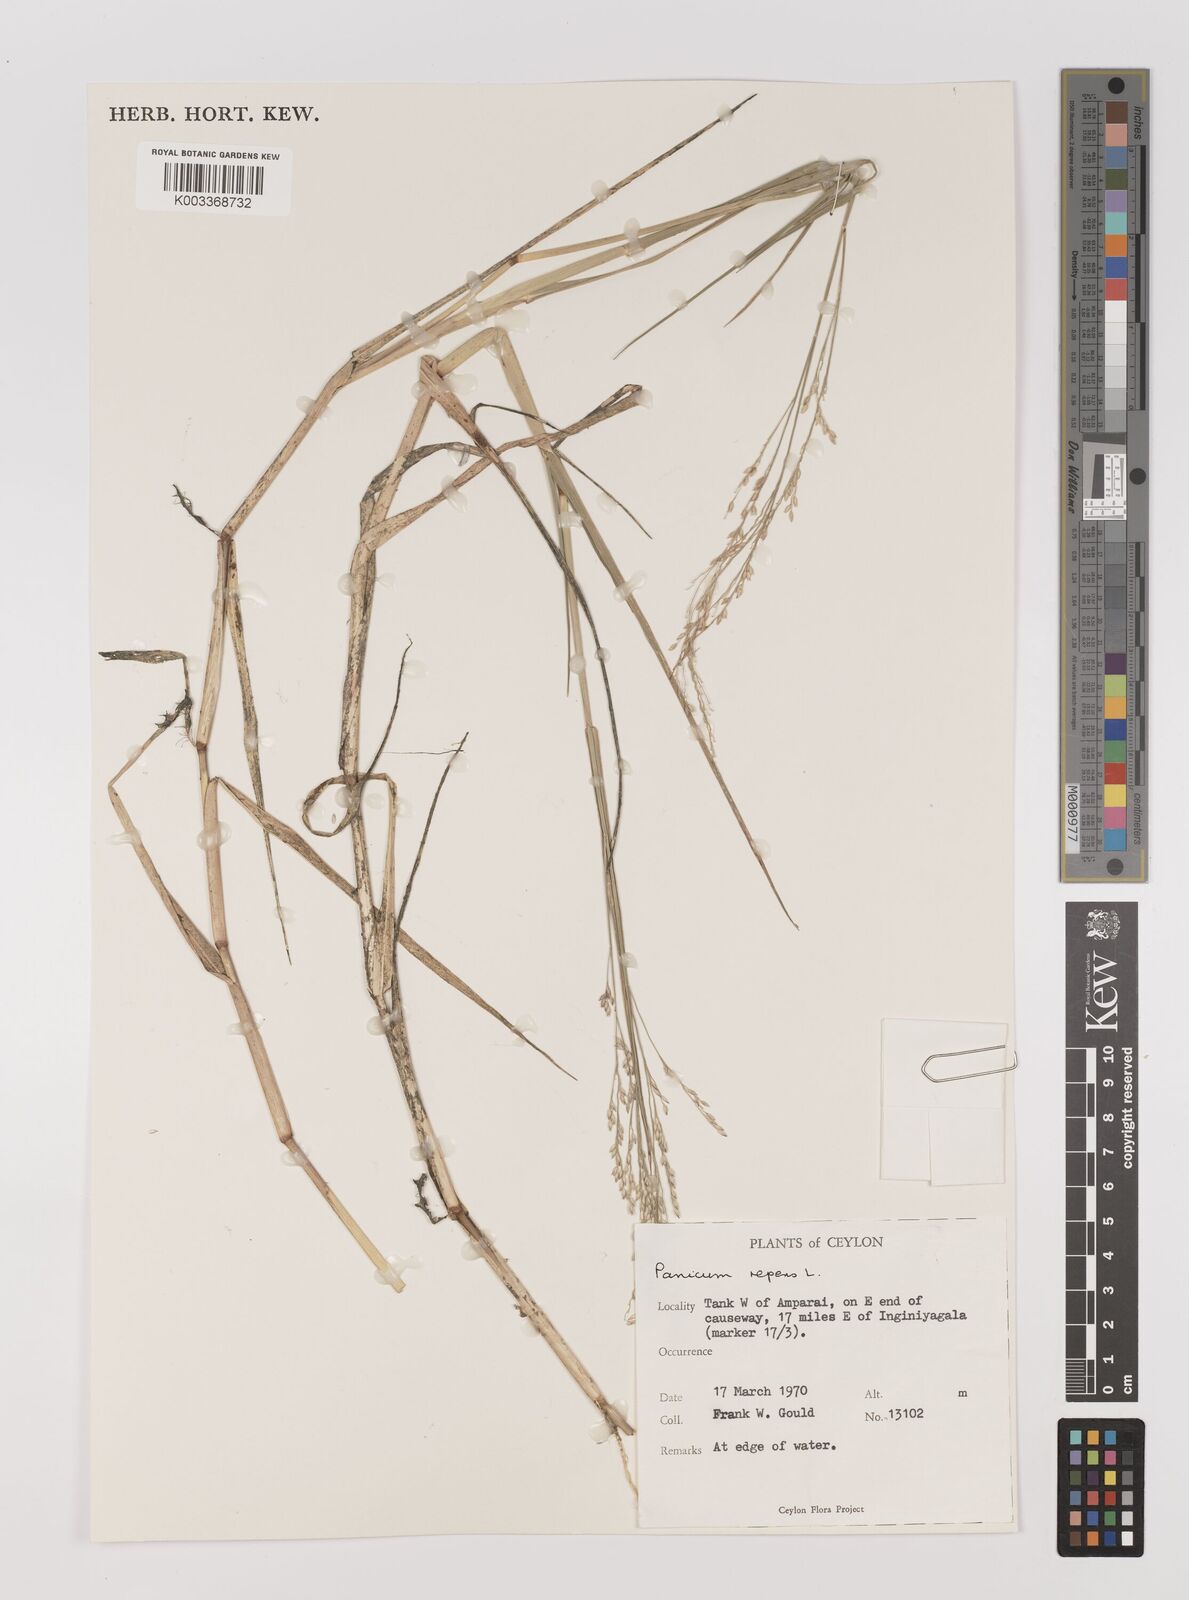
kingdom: Plantae
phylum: Tracheophyta
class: Liliopsida
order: Poales
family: Poaceae
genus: Panicum
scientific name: Panicum repens
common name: Torpedo grass
